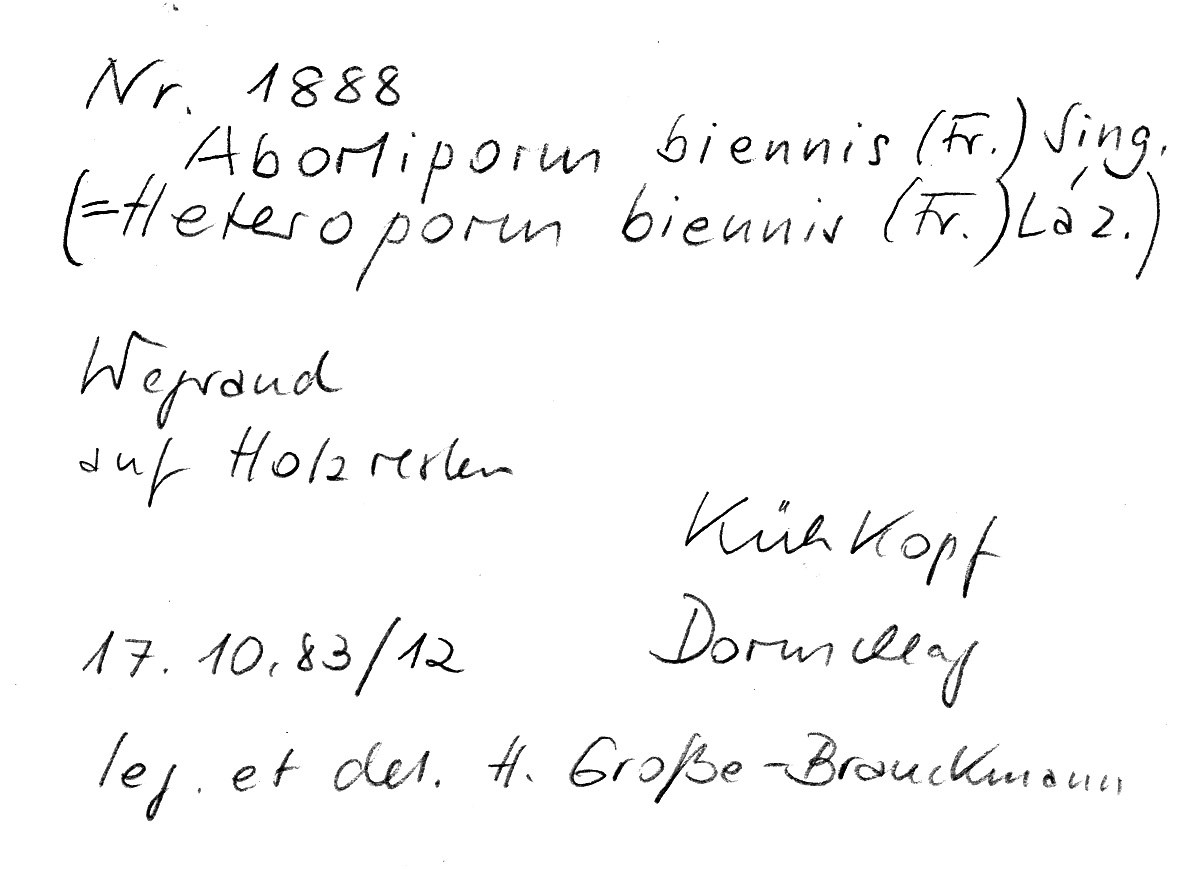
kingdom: Fungi
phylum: Basidiomycota
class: Agaricomycetes
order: Polyporales
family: Podoscyphaceae
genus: Abortiporus
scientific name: Abortiporus biennis
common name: Blushing rosette
